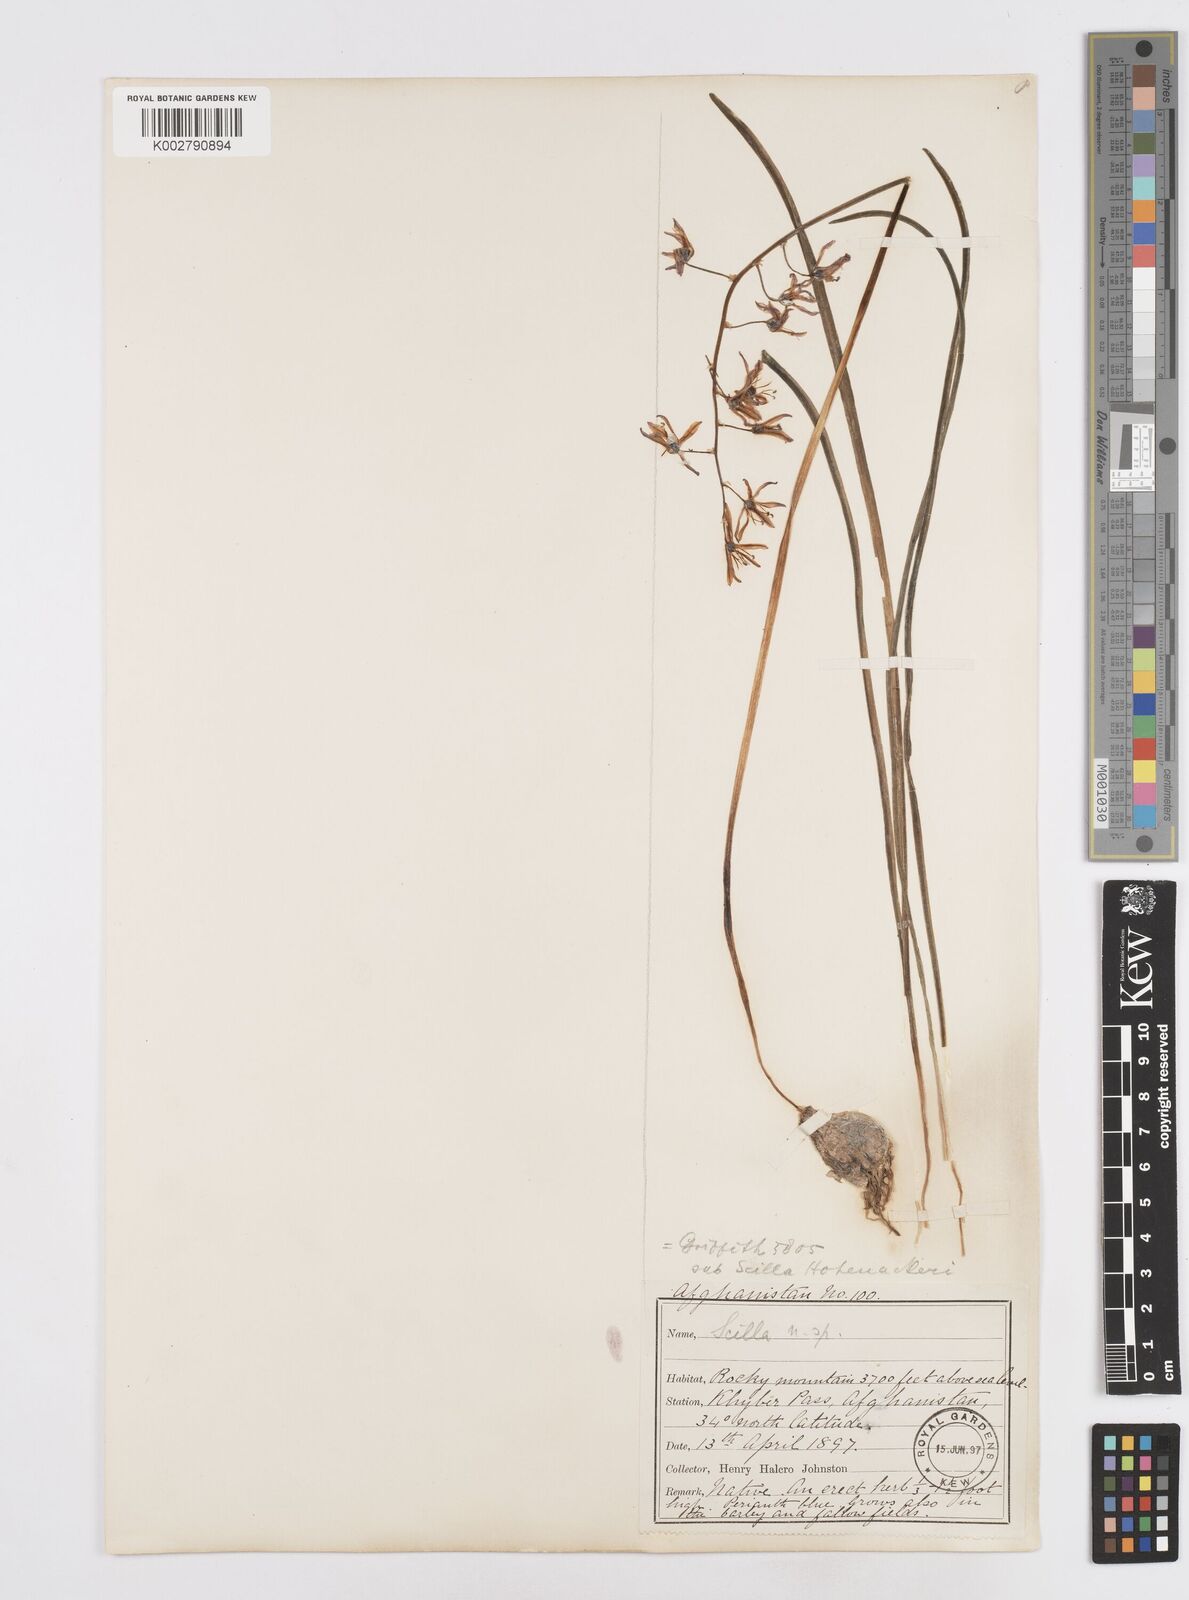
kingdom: Plantae
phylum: Tracheophyta
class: Liliopsida
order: Asparagales
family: Asparagaceae
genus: Fessia
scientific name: Fessia purpurea
